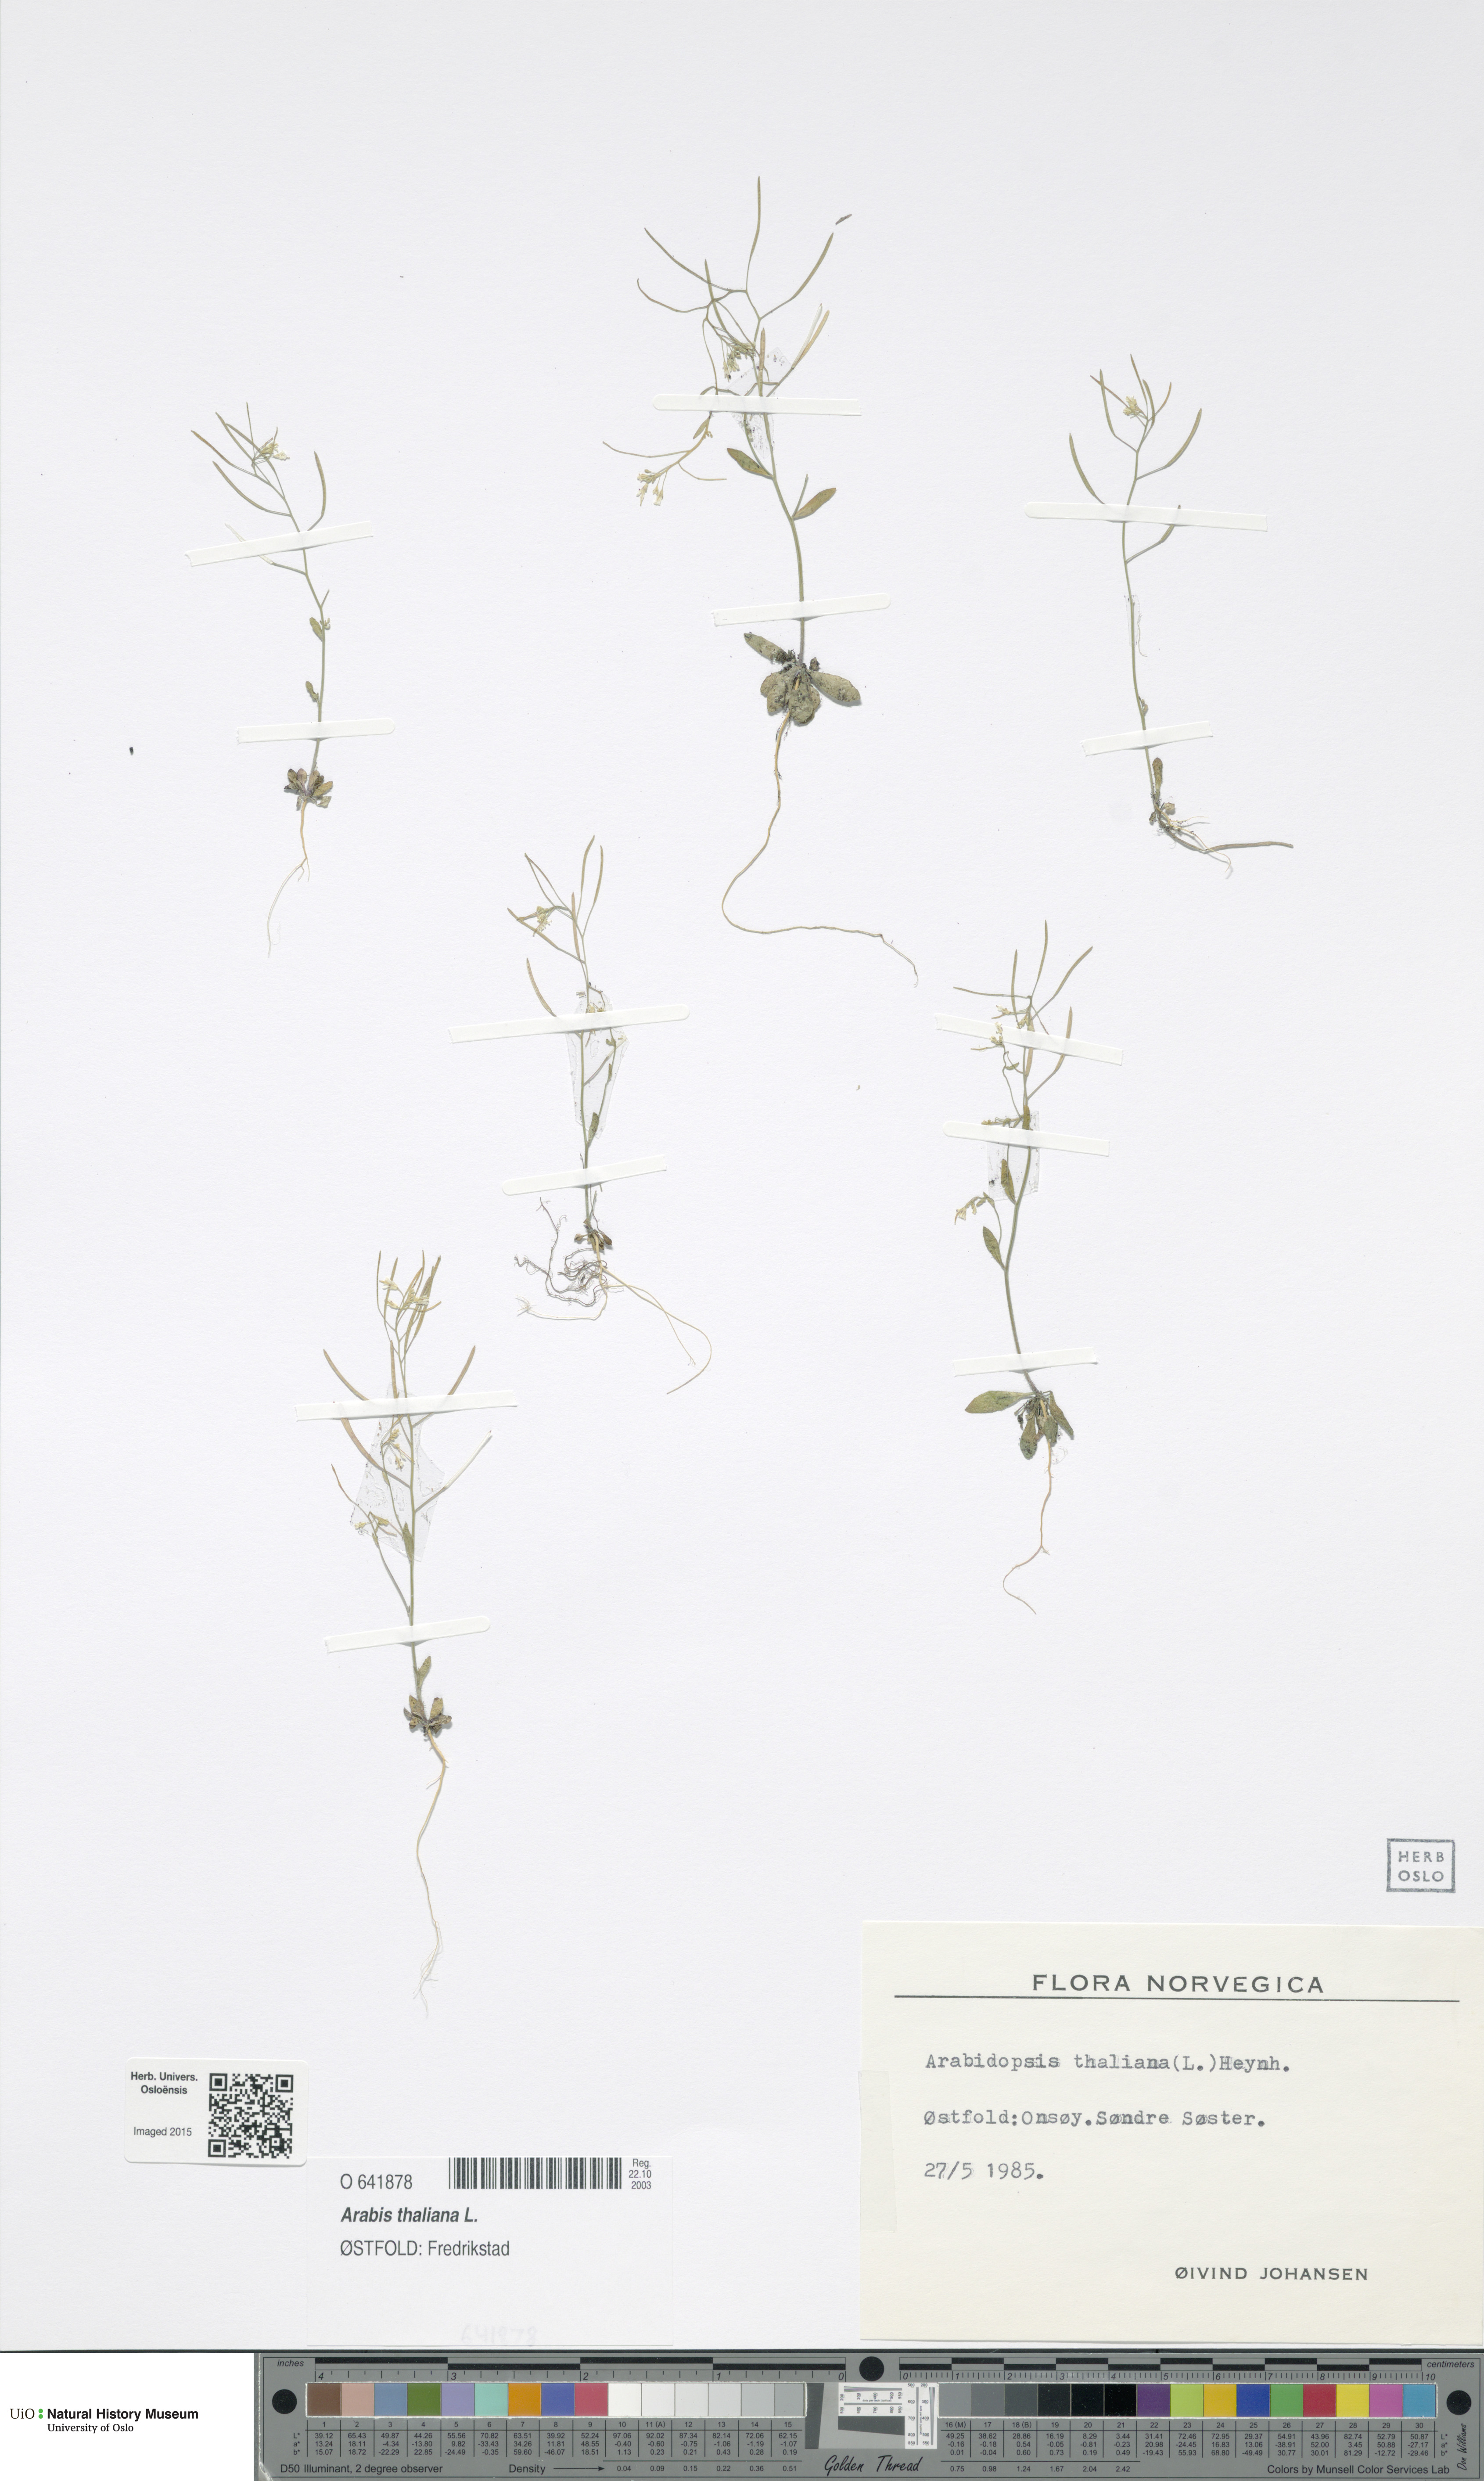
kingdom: Plantae
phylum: Tracheophyta
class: Magnoliopsida
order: Brassicales
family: Brassicaceae
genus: Arabidopsis
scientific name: Arabidopsis thaliana
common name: Thale cress
